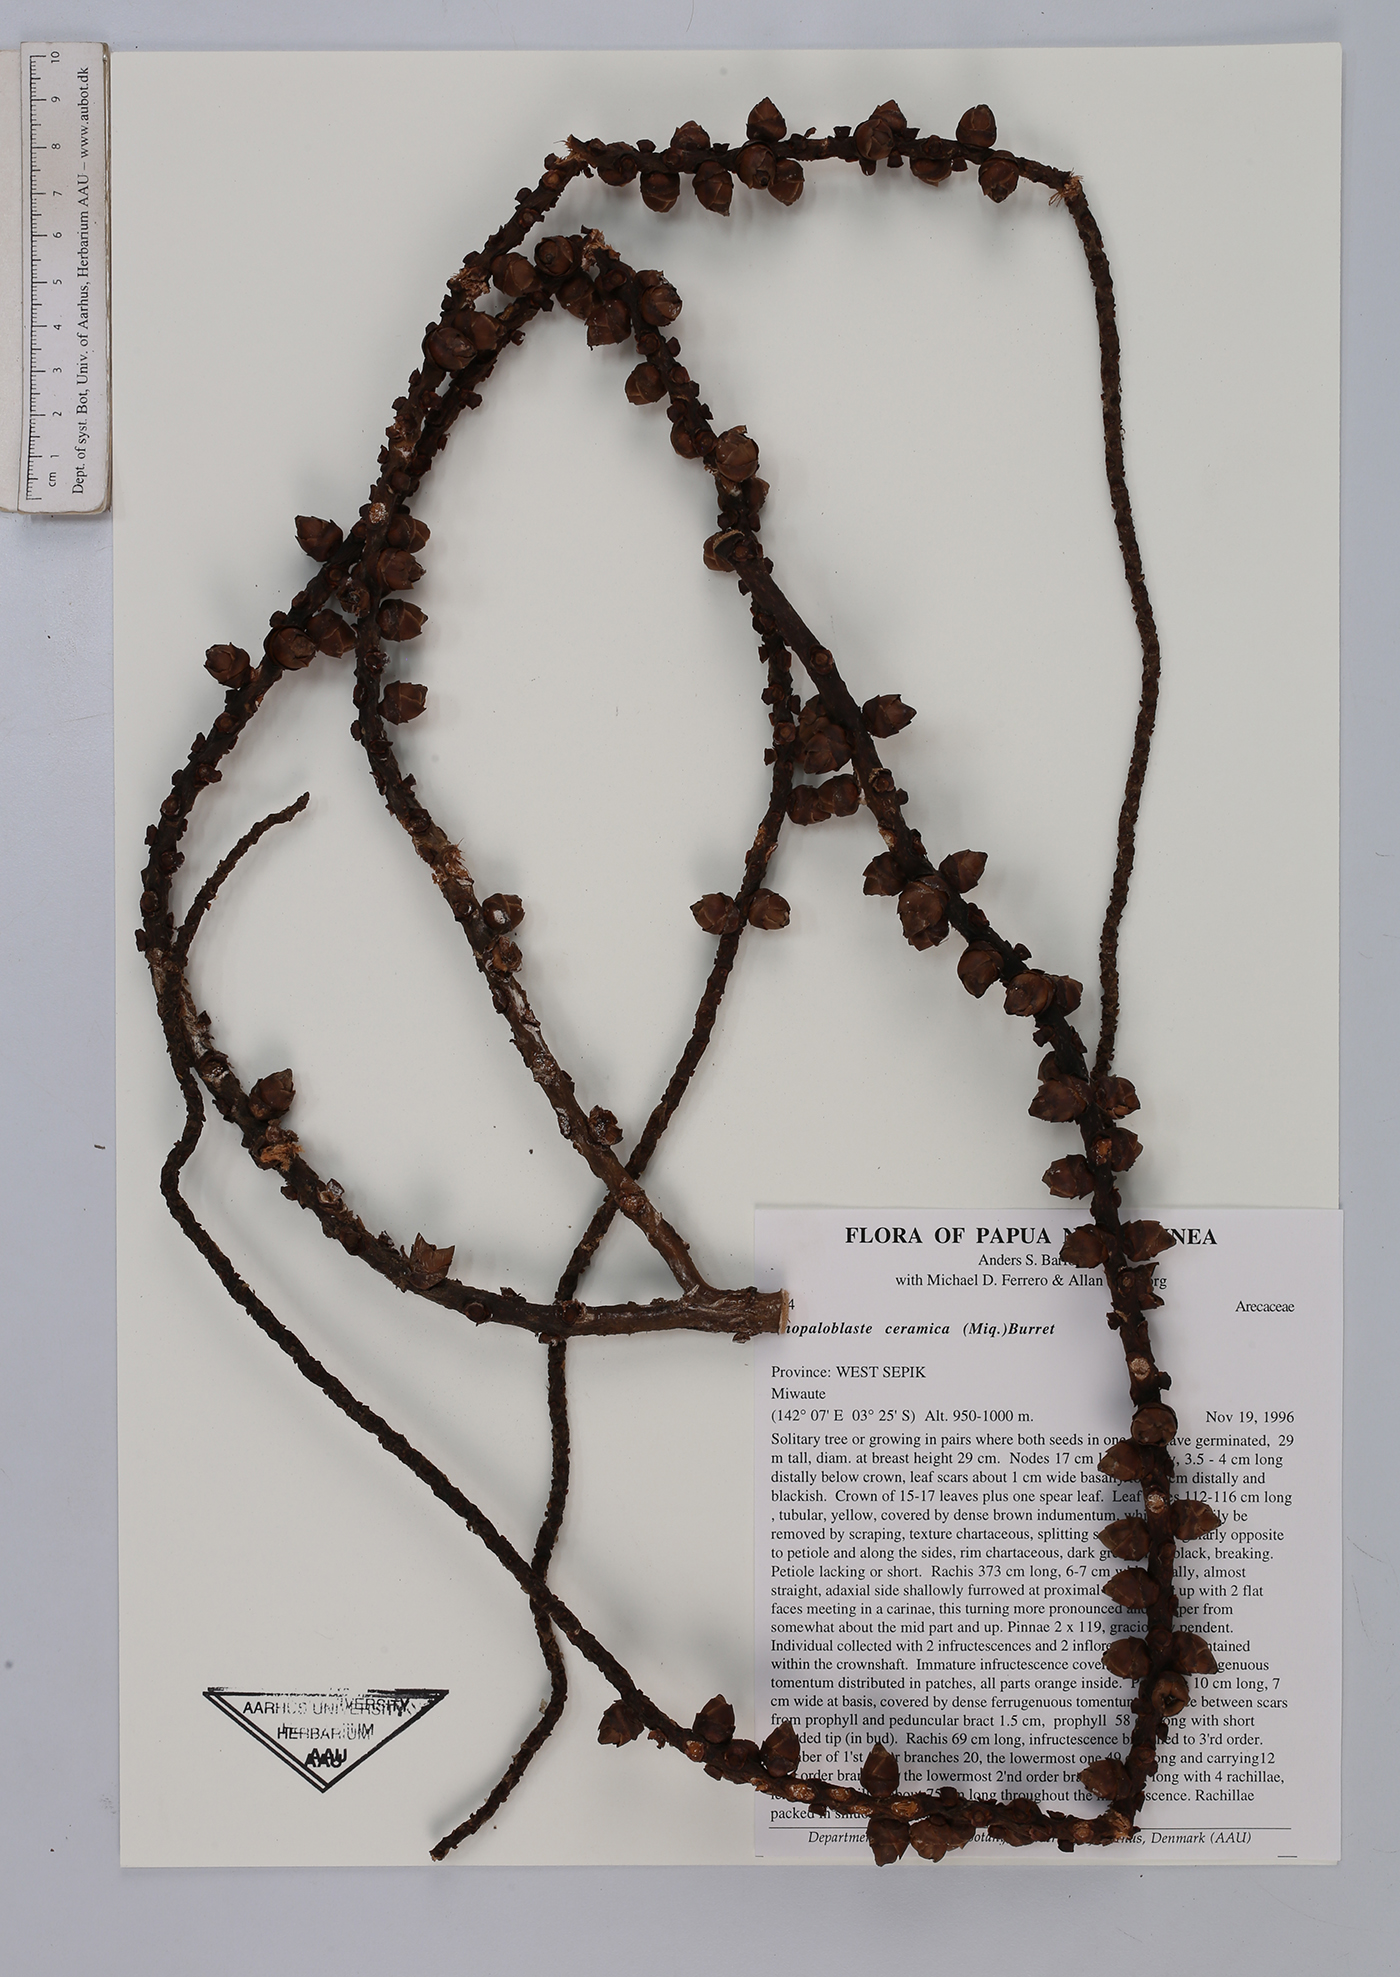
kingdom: Plantae
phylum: Tracheophyta
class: Liliopsida
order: Arecales
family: Arecaceae
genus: Rhopaloblaste
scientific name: Rhopaloblaste ceramica
